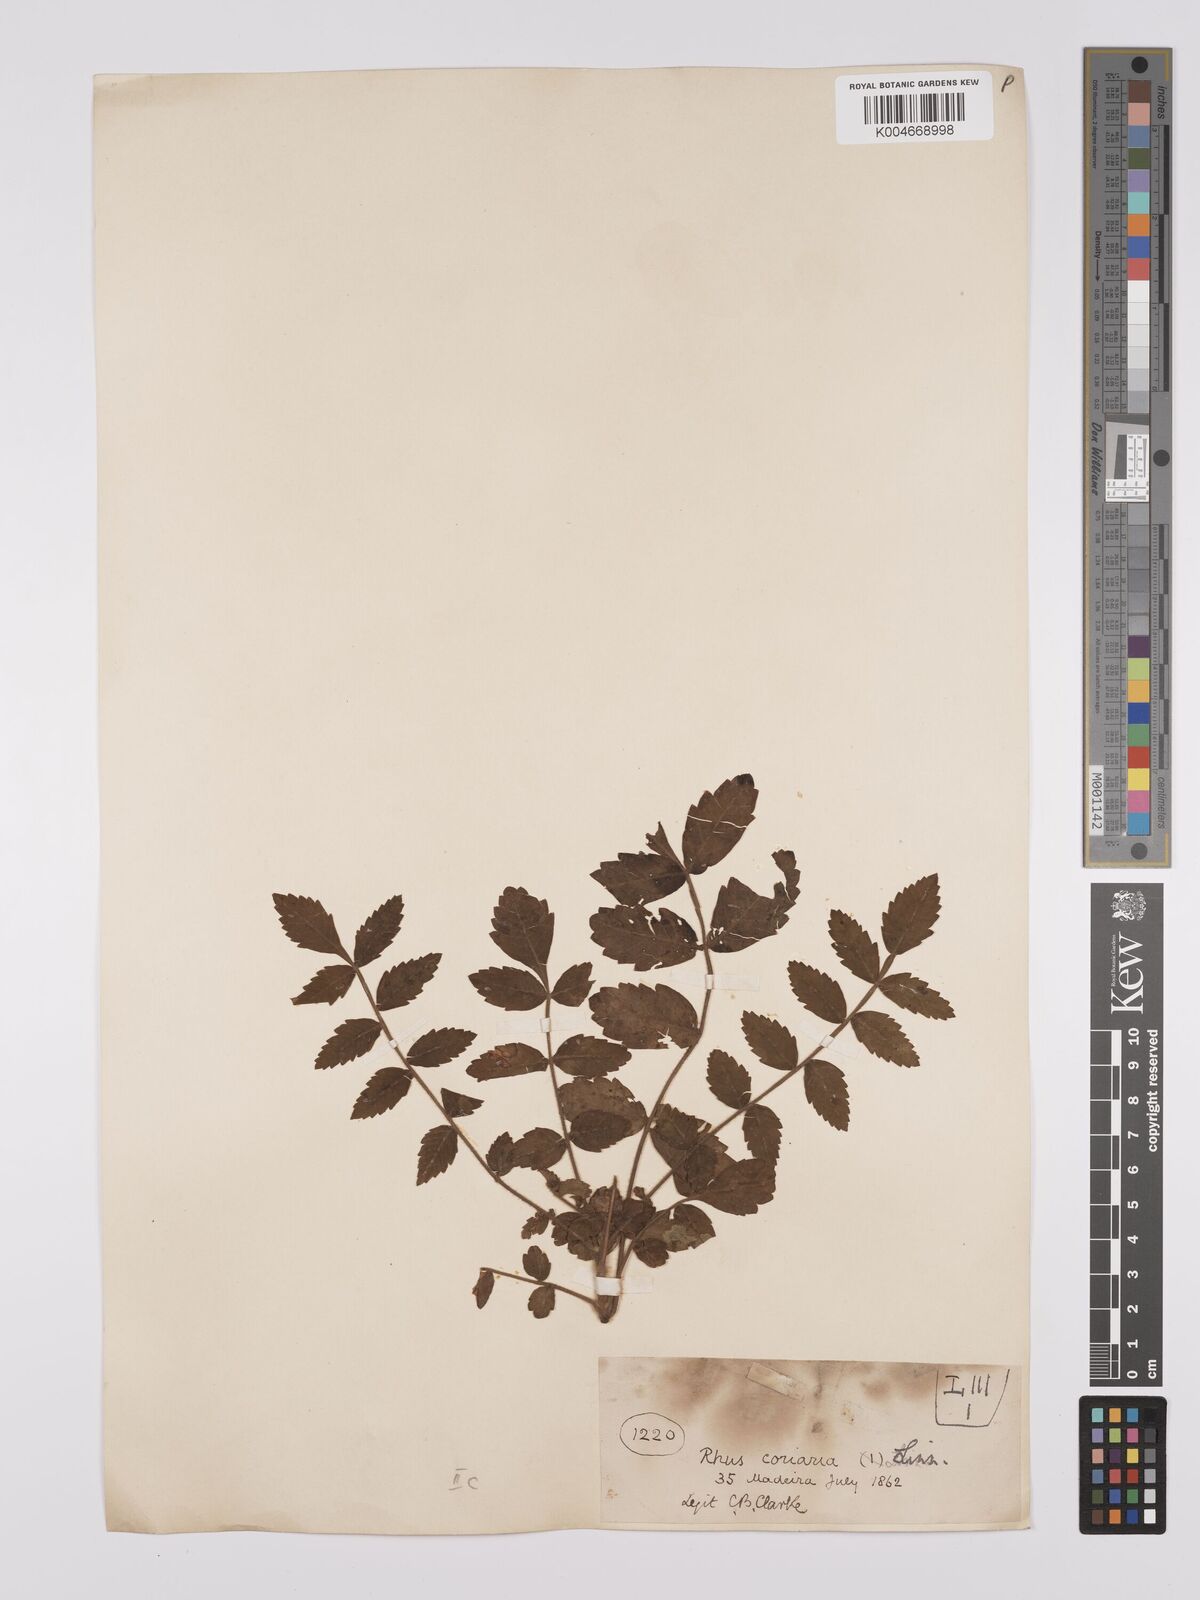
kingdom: Plantae
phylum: Tracheophyta
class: Magnoliopsida
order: Sapindales
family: Anacardiaceae
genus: Rhus
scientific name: Rhus coriaria
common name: Tanner's sumach
